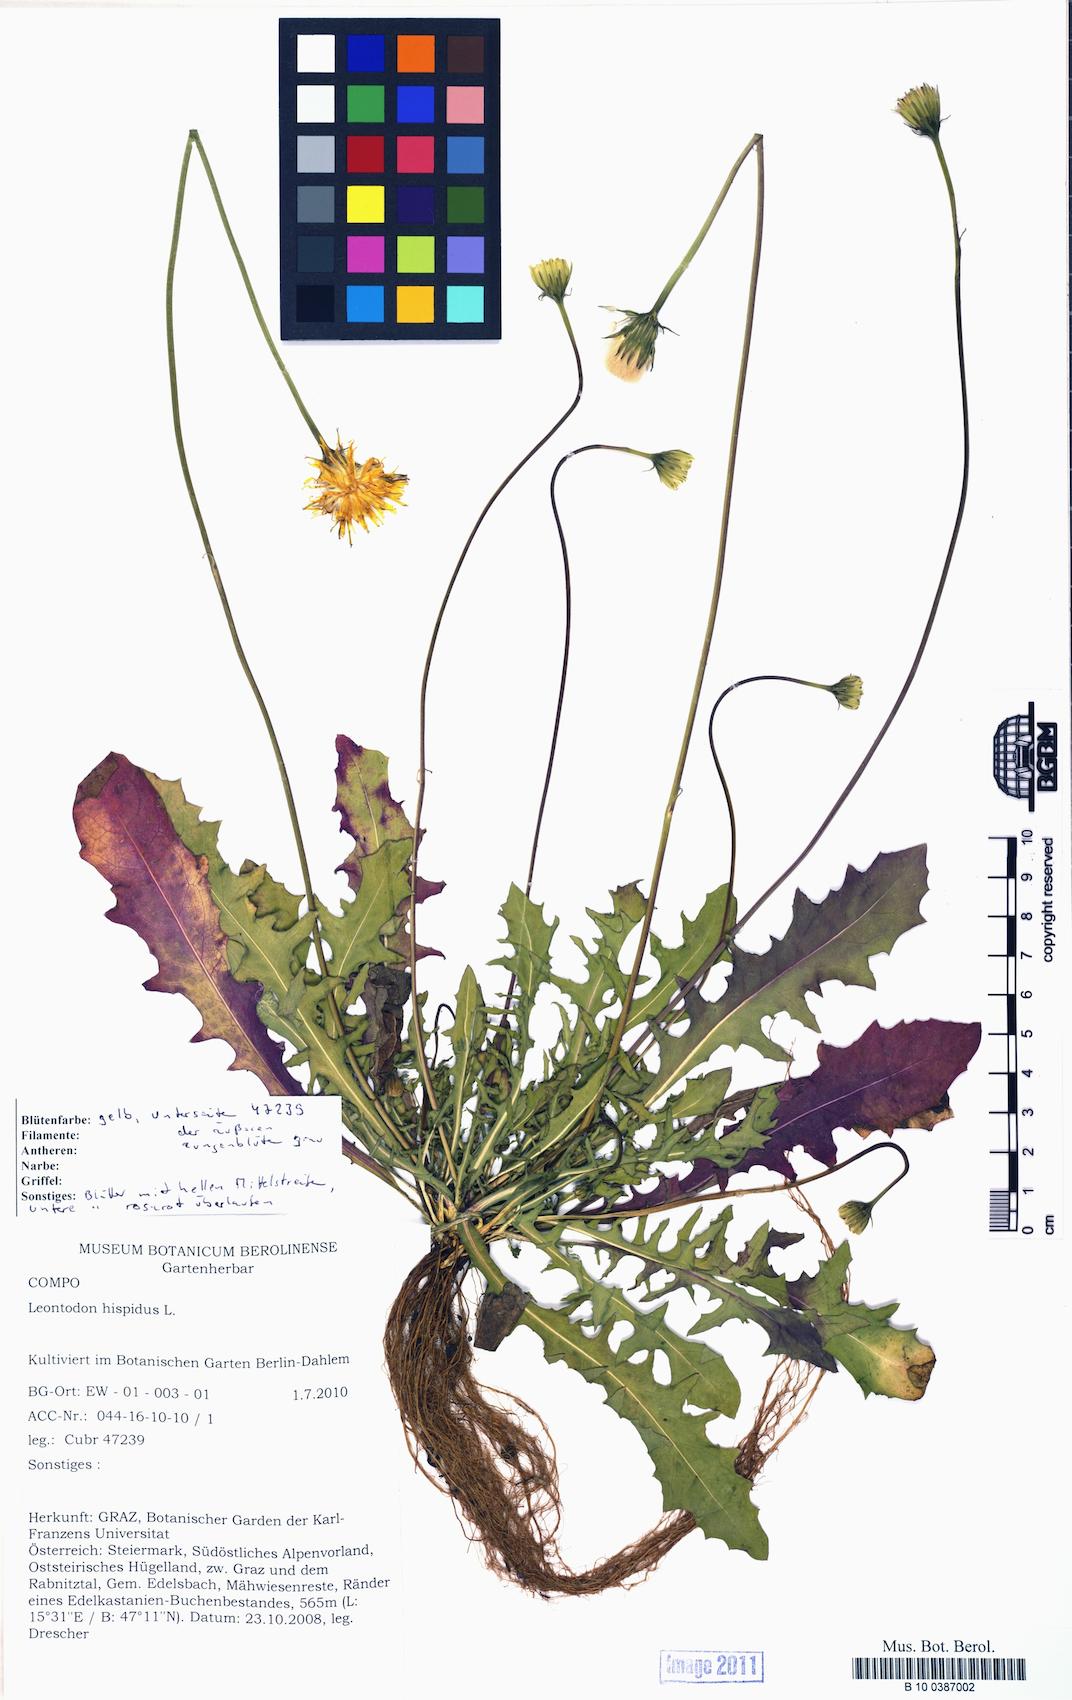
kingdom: Plantae
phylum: Tracheophyta
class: Magnoliopsida
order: Asterales
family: Asteraceae
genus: Leontodon
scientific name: Leontodon hispidus
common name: Rough hawkbit
